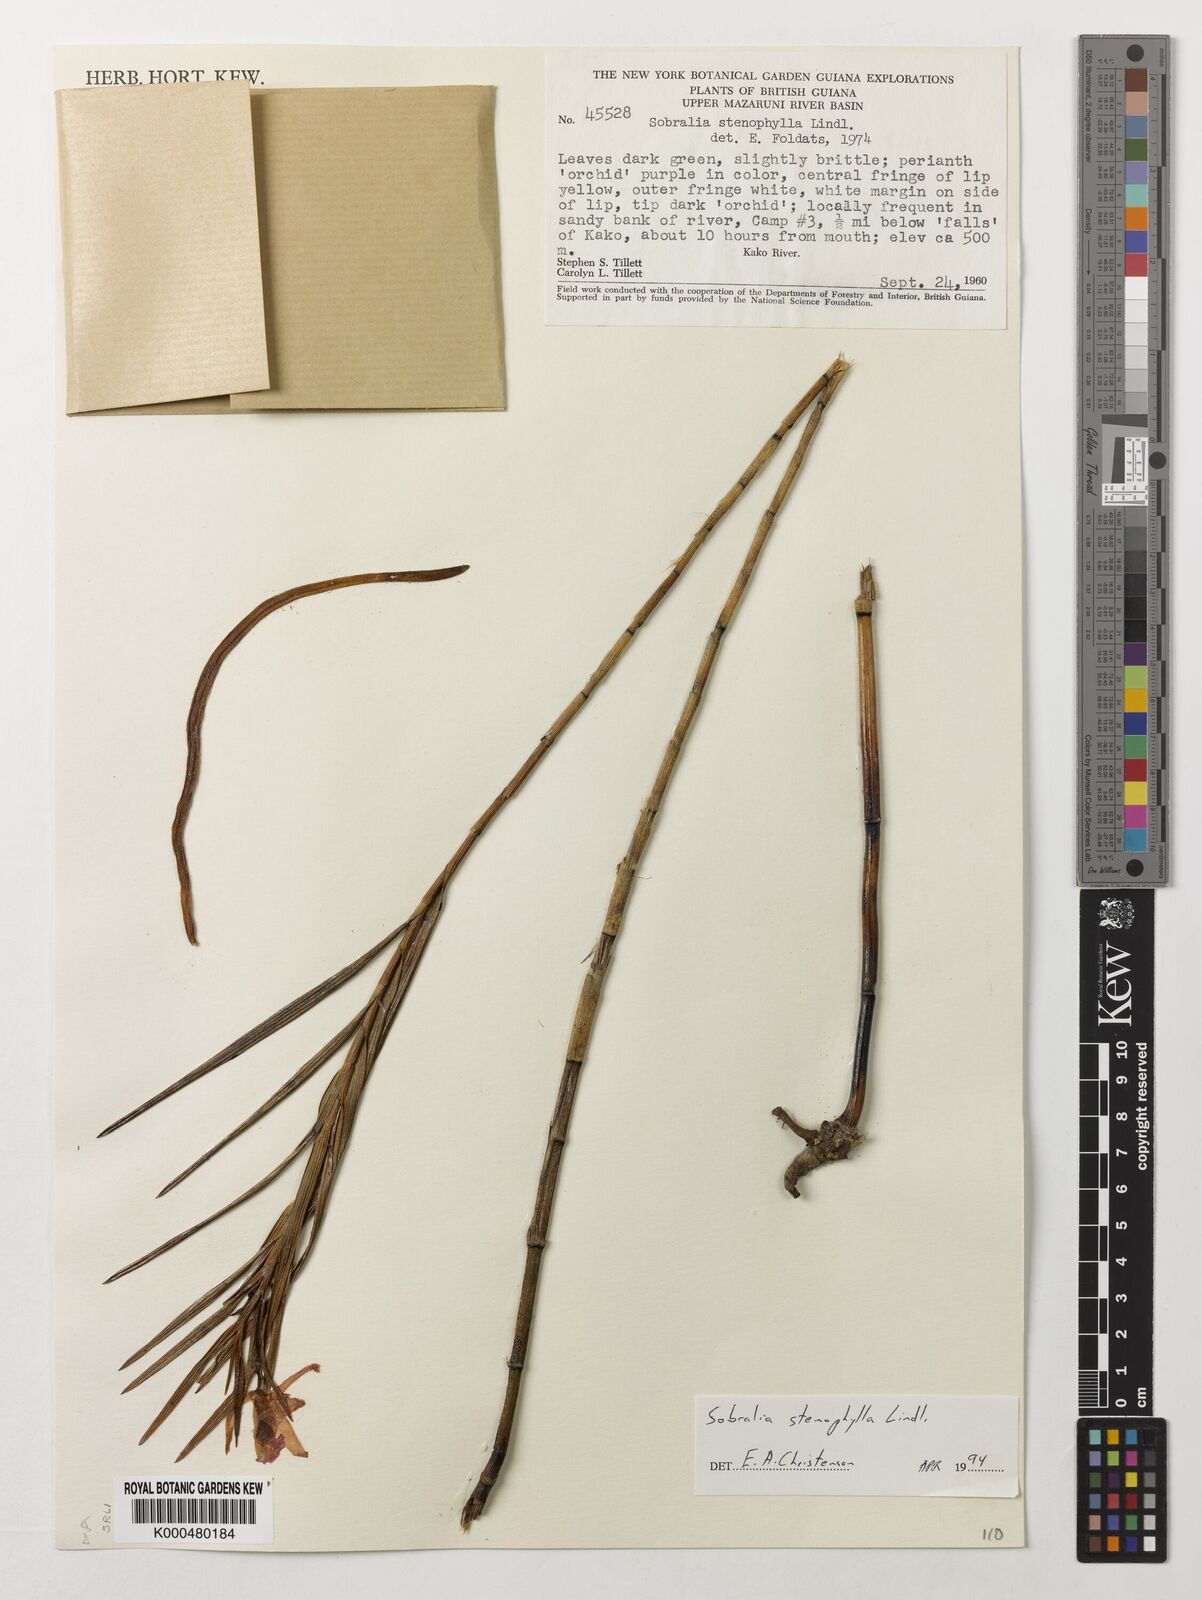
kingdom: Plantae
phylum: Tracheophyta
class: Liliopsida
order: Asparagales
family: Orchidaceae
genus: Sobralia
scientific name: Sobralia stenophylla
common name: Thin leafed sobralia
